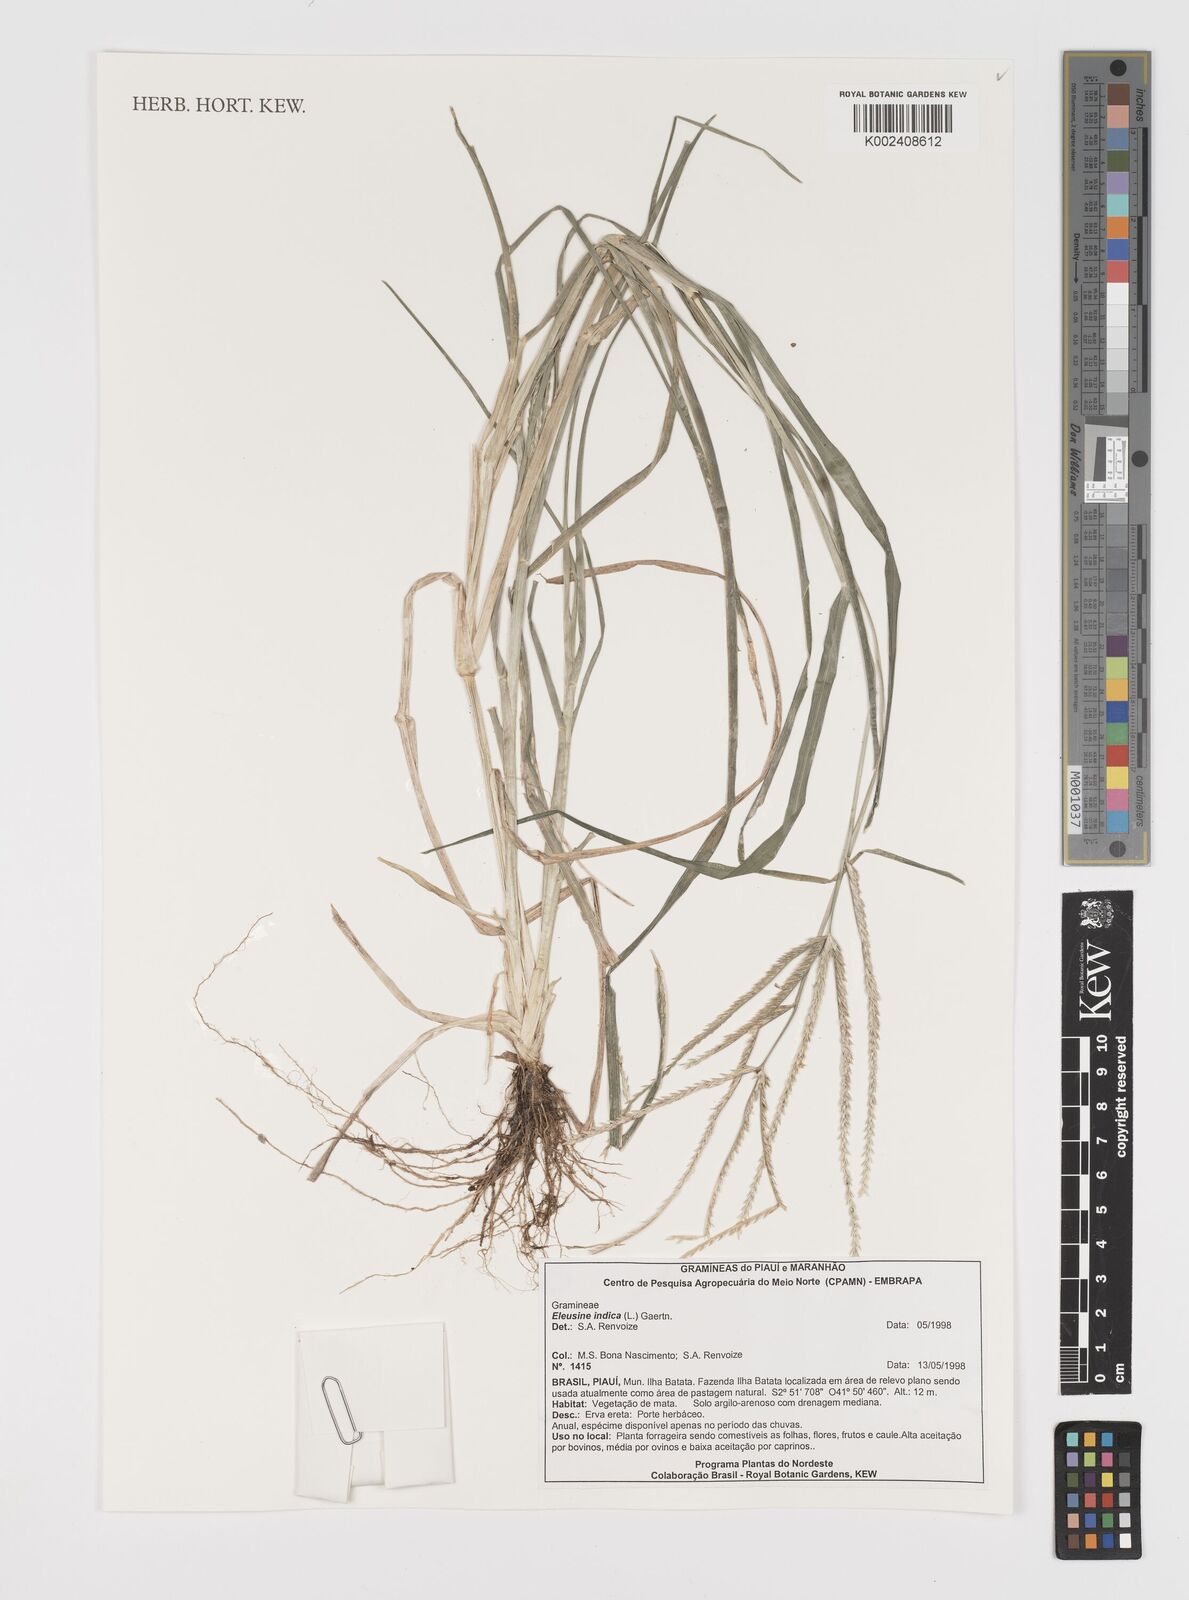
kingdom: Plantae
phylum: Tracheophyta
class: Liliopsida
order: Poales
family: Poaceae
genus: Eleusine
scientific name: Eleusine indica
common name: Yard-grass
